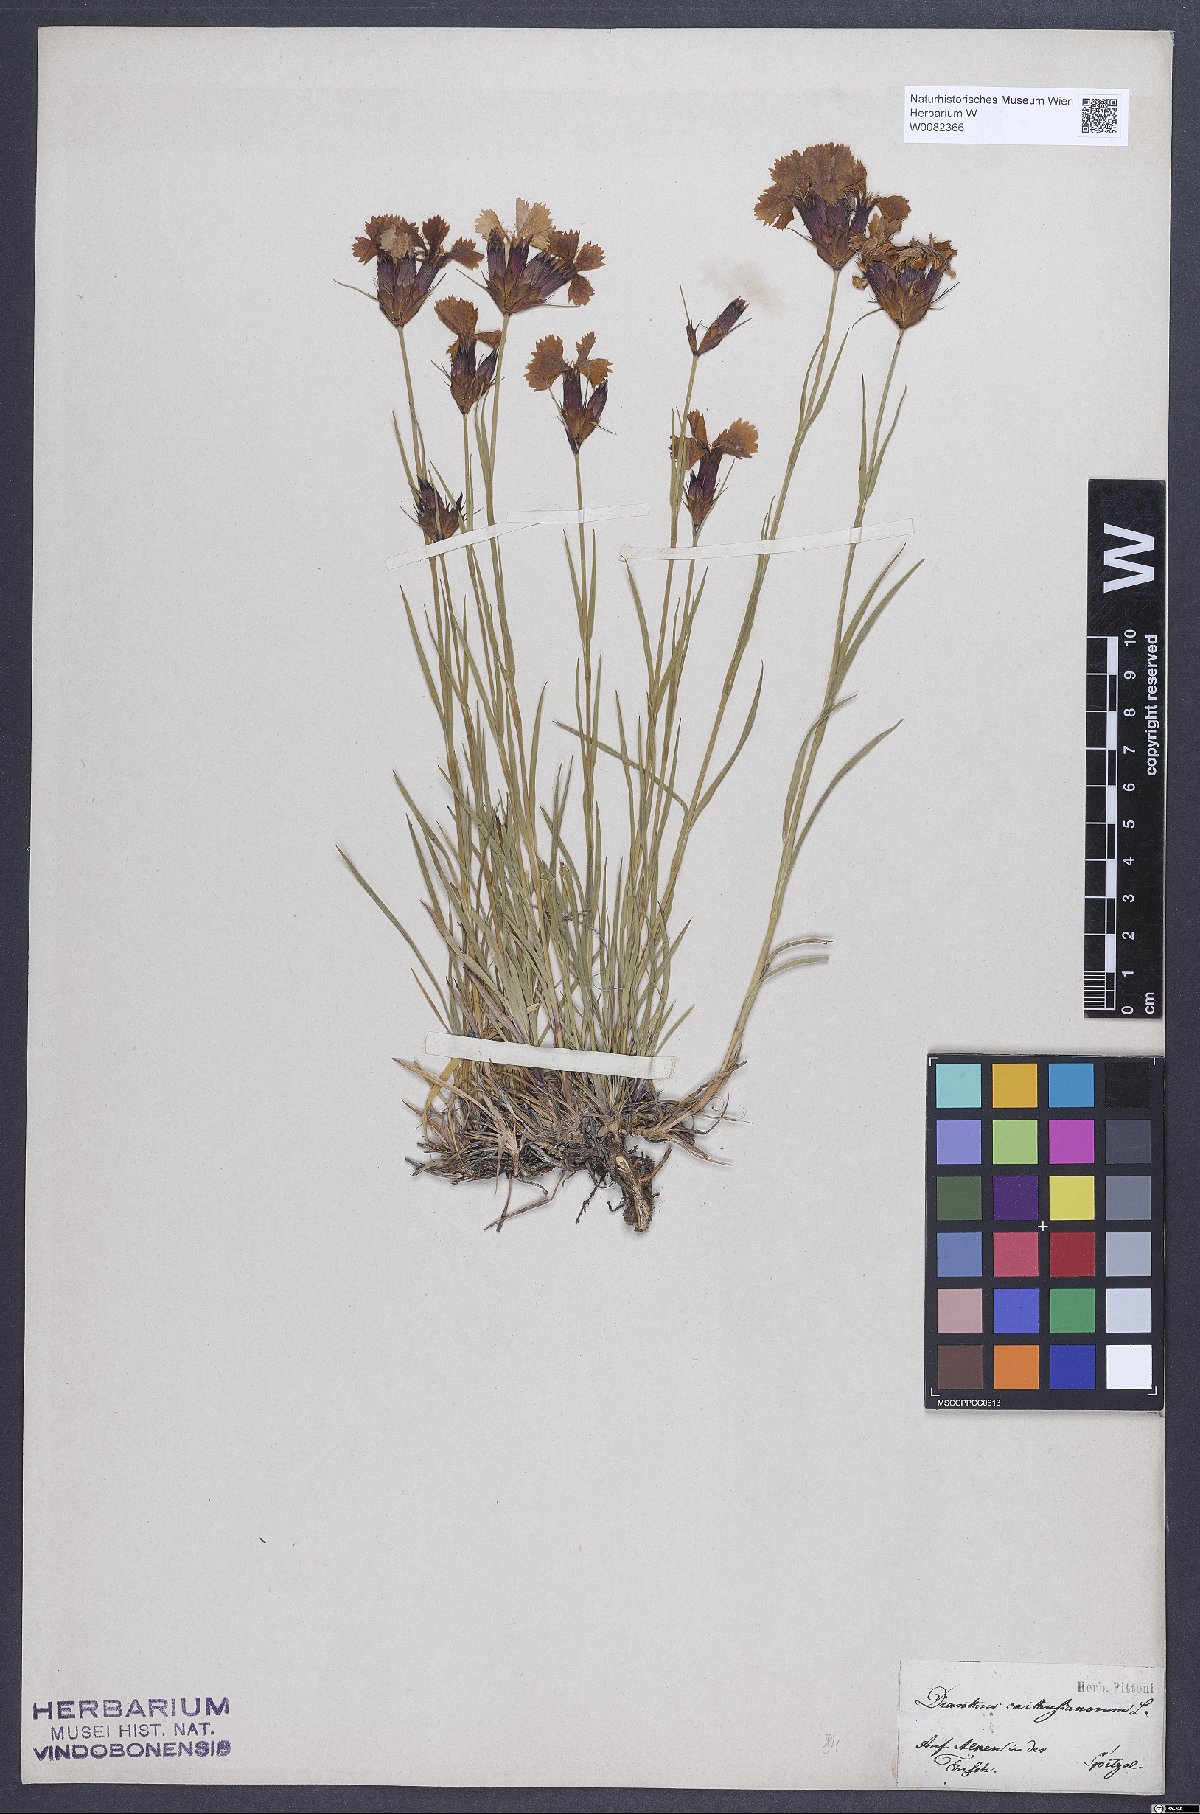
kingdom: Plantae
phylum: Tracheophyta
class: Magnoliopsida
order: Caryophyllales
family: Caryophyllaceae
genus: Dianthus
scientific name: Dianthus carthusianorum
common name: Carthusian pink
